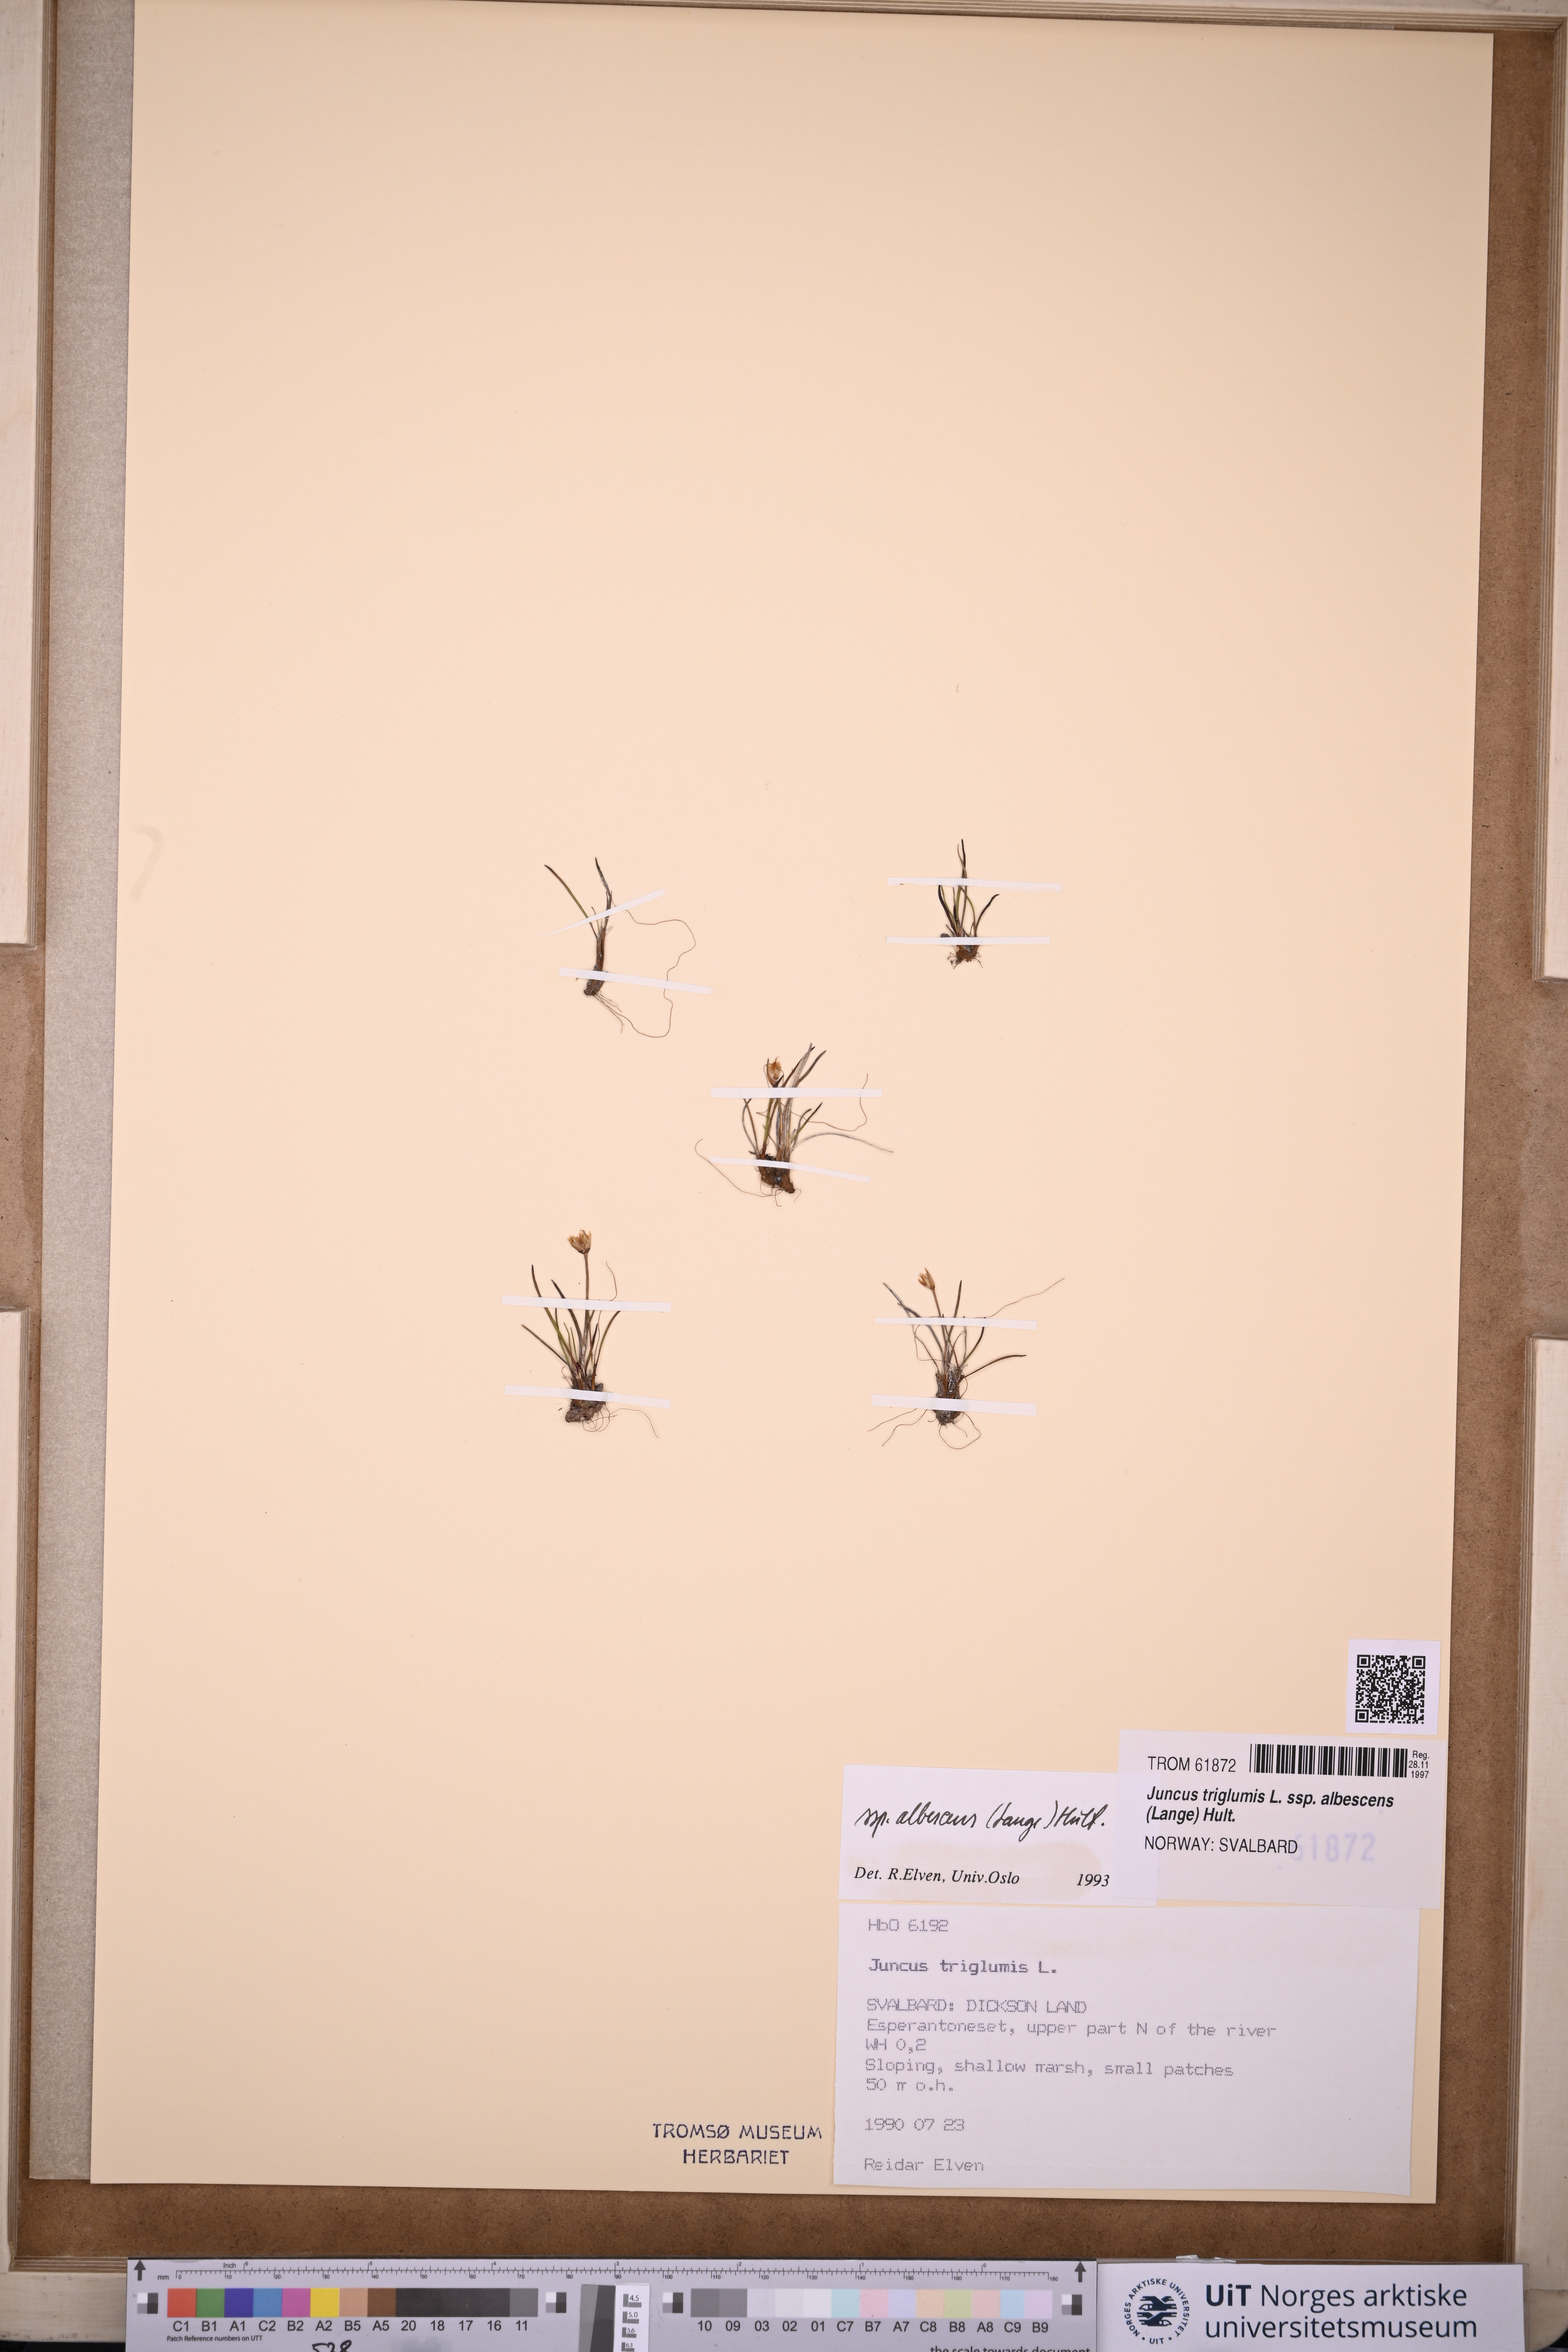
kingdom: Plantae
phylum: Tracheophyta
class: Liliopsida
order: Poales
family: Juncaceae
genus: Juncus
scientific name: Juncus albescens
